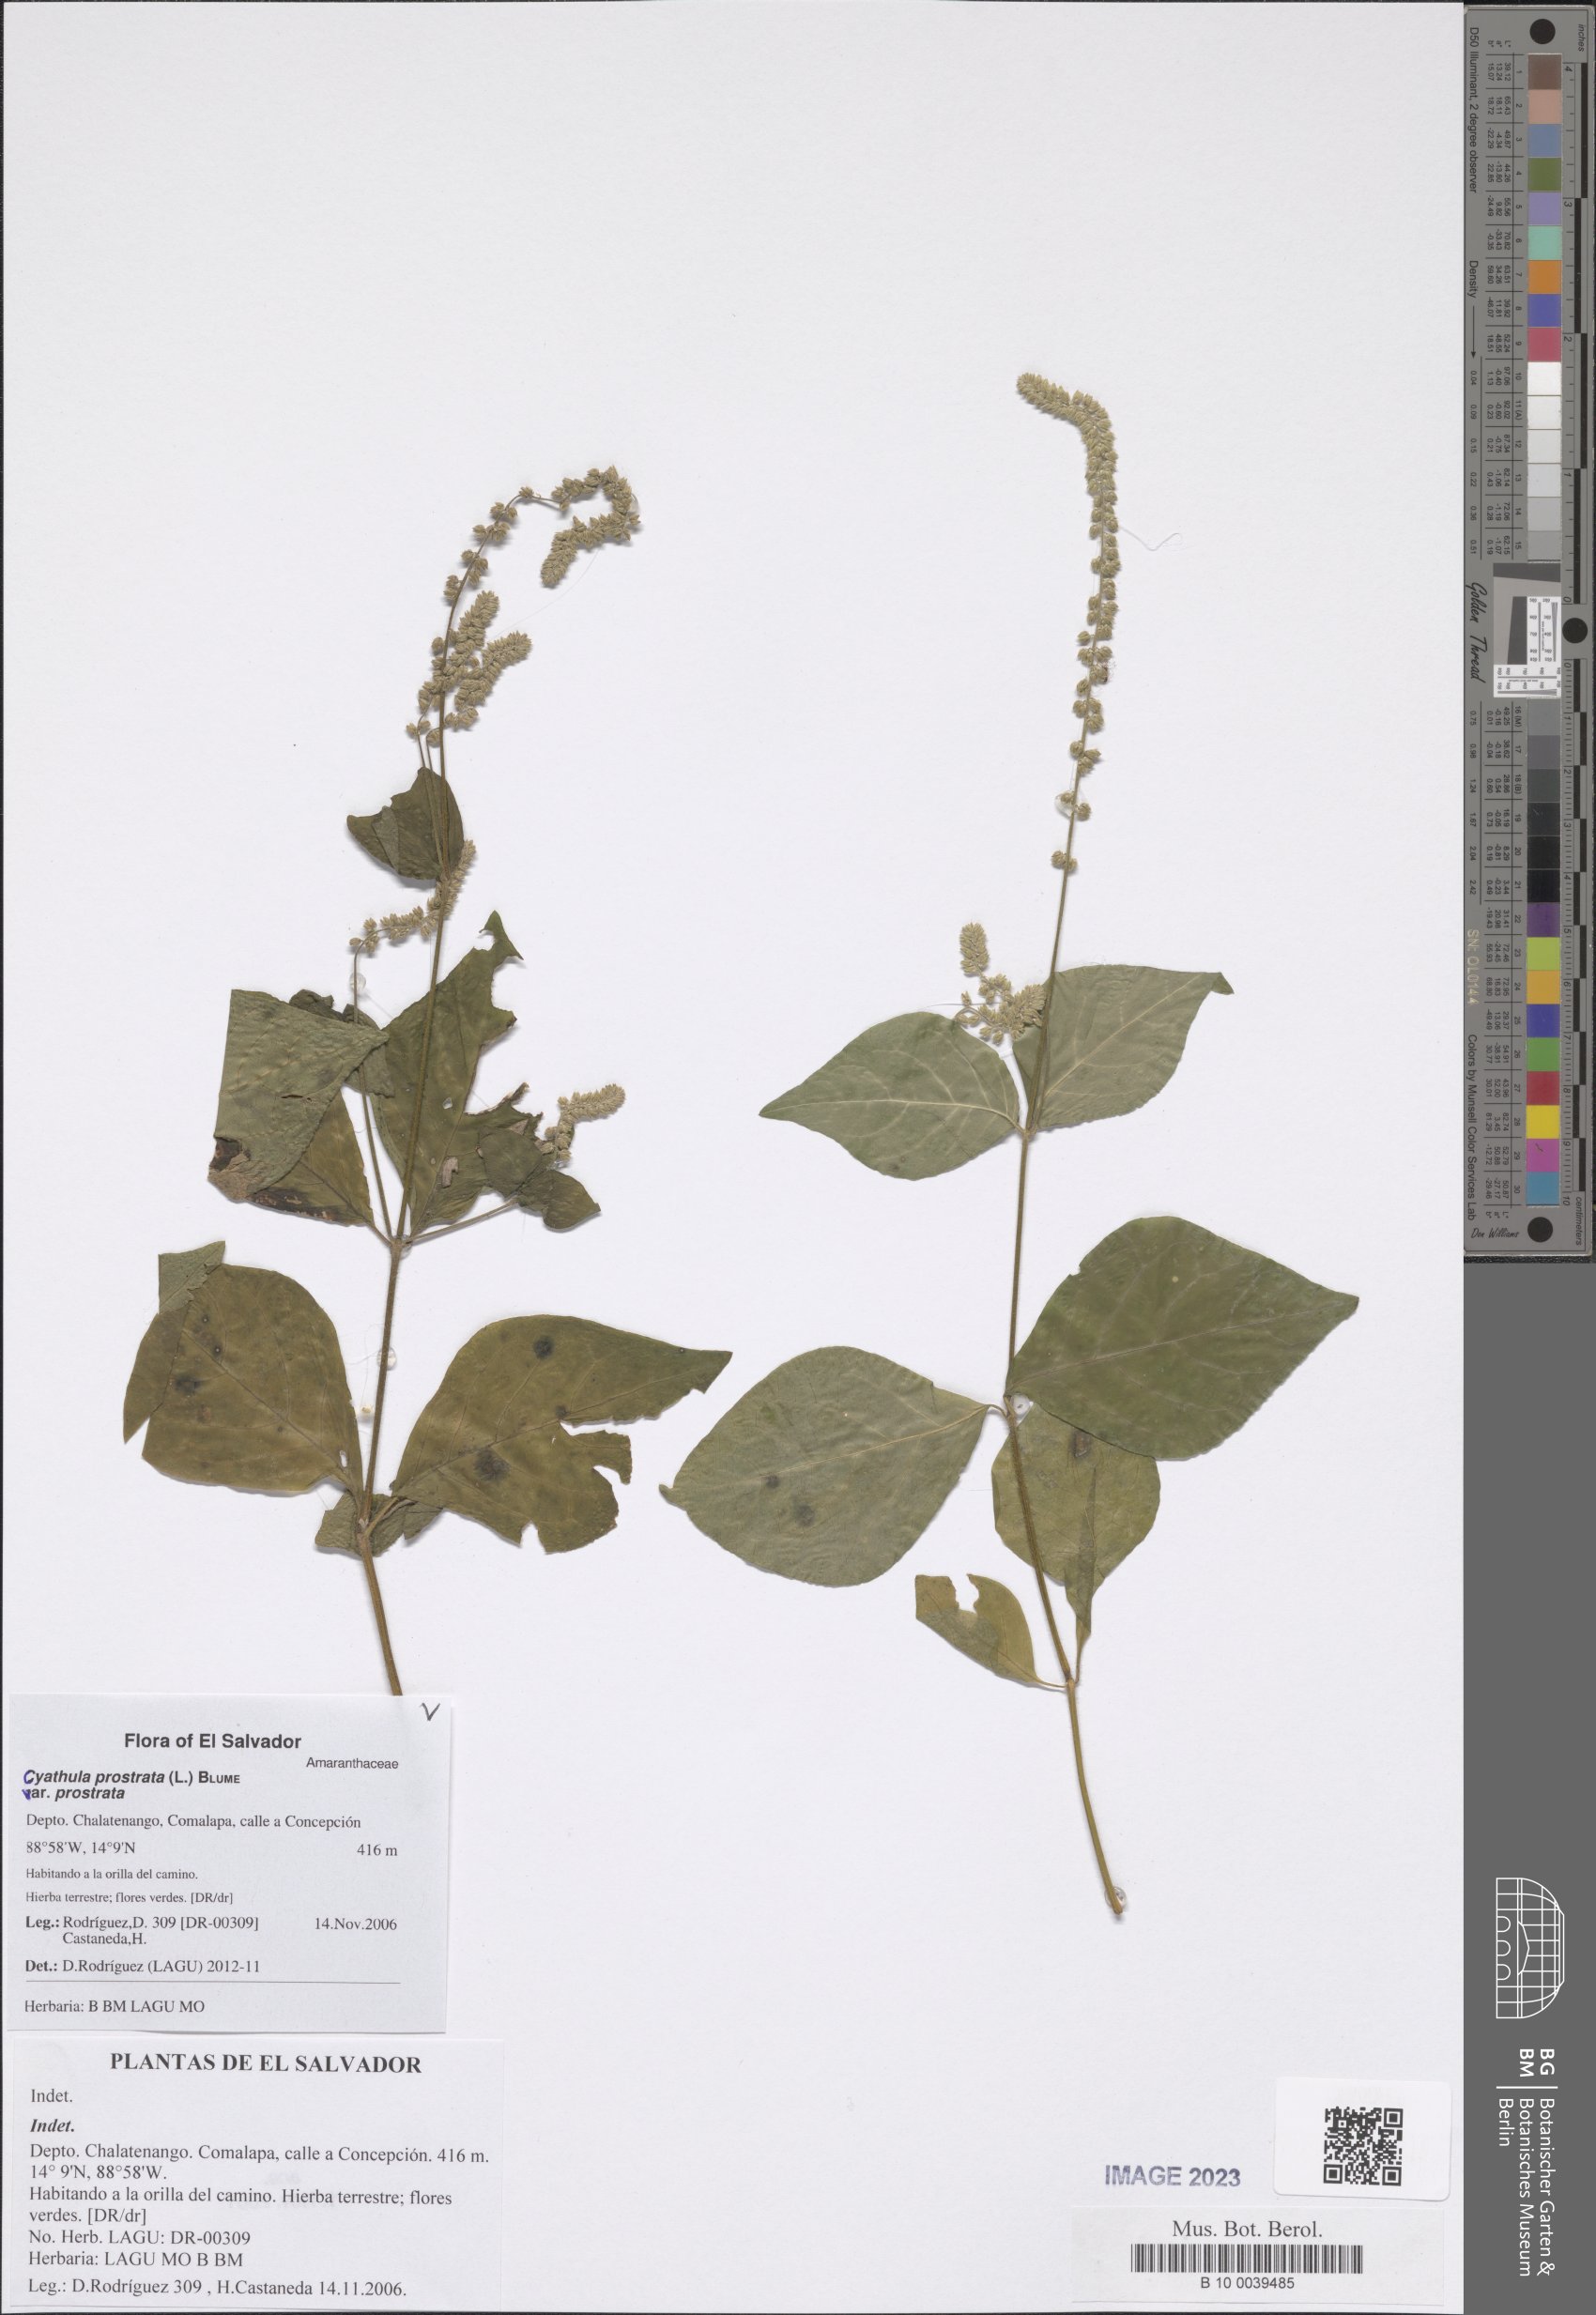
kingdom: Plantae
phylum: Tracheophyta
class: Magnoliopsida
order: Caryophyllales
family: Amaranthaceae
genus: Cyathula
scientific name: Cyathula prostrata
